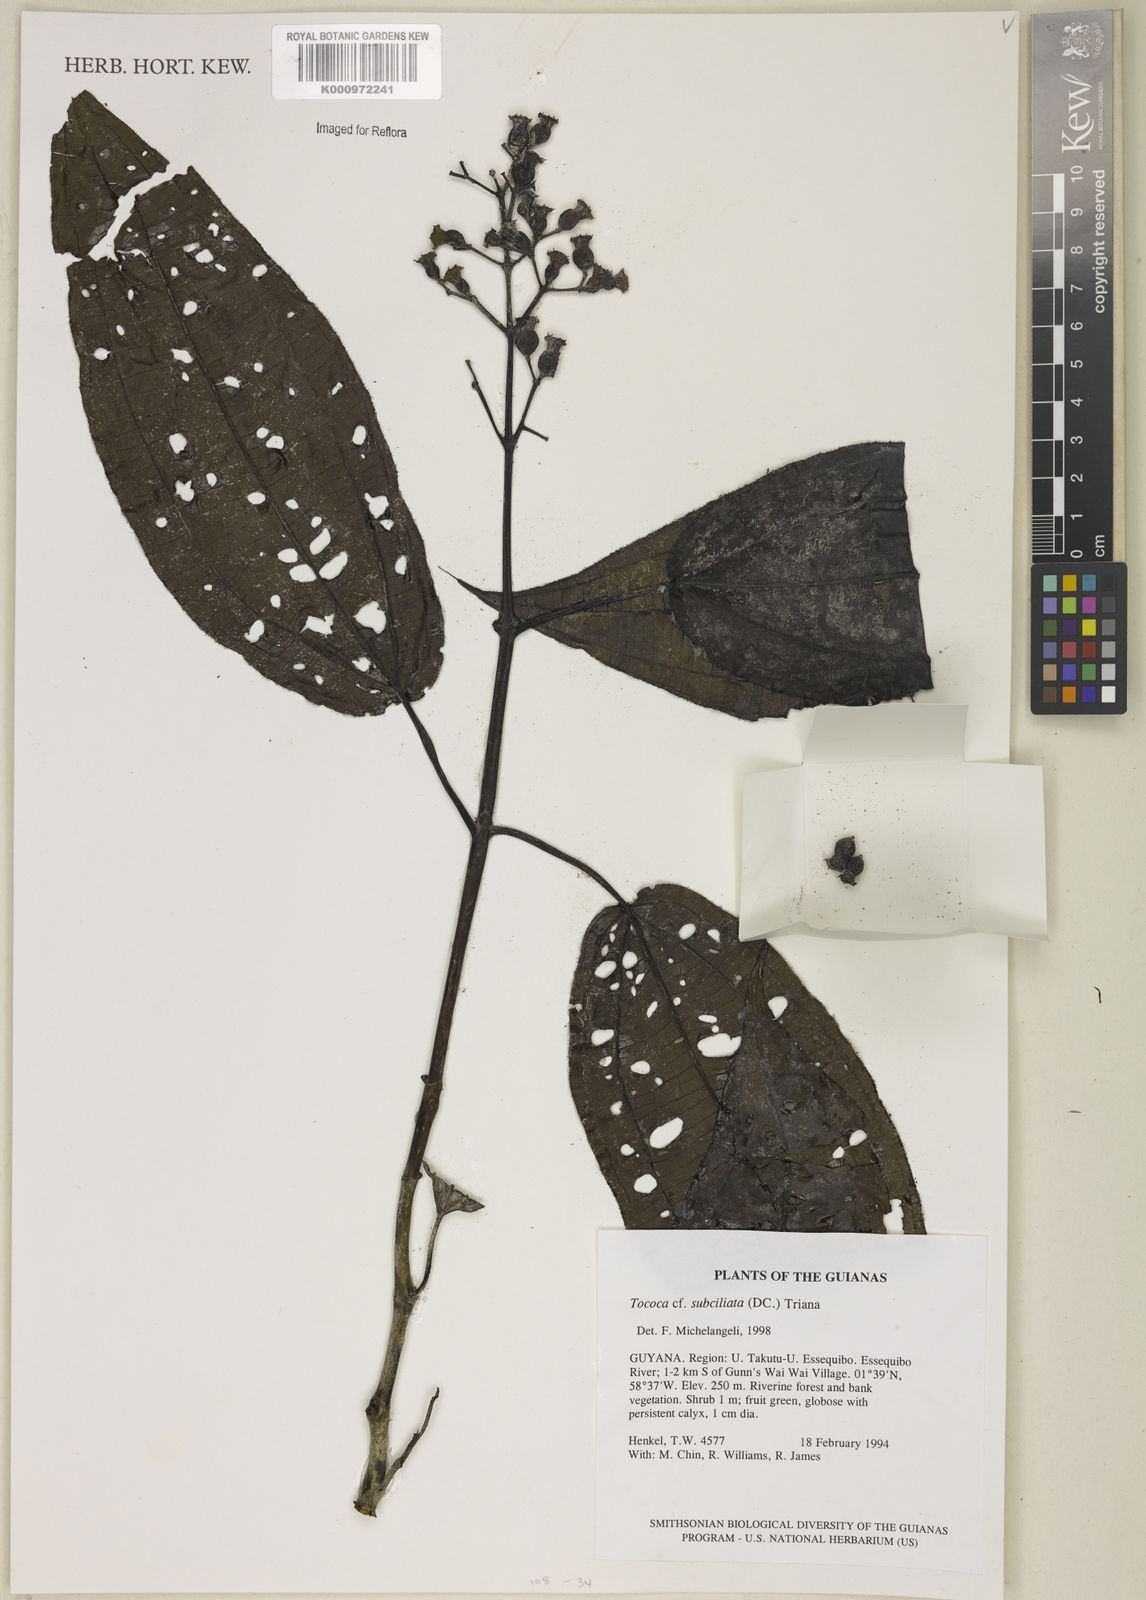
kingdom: Plantae
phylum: Tracheophyta
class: Magnoliopsida
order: Myrtales
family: Melastomataceae
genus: Miconia
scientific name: Miconia subciliata
